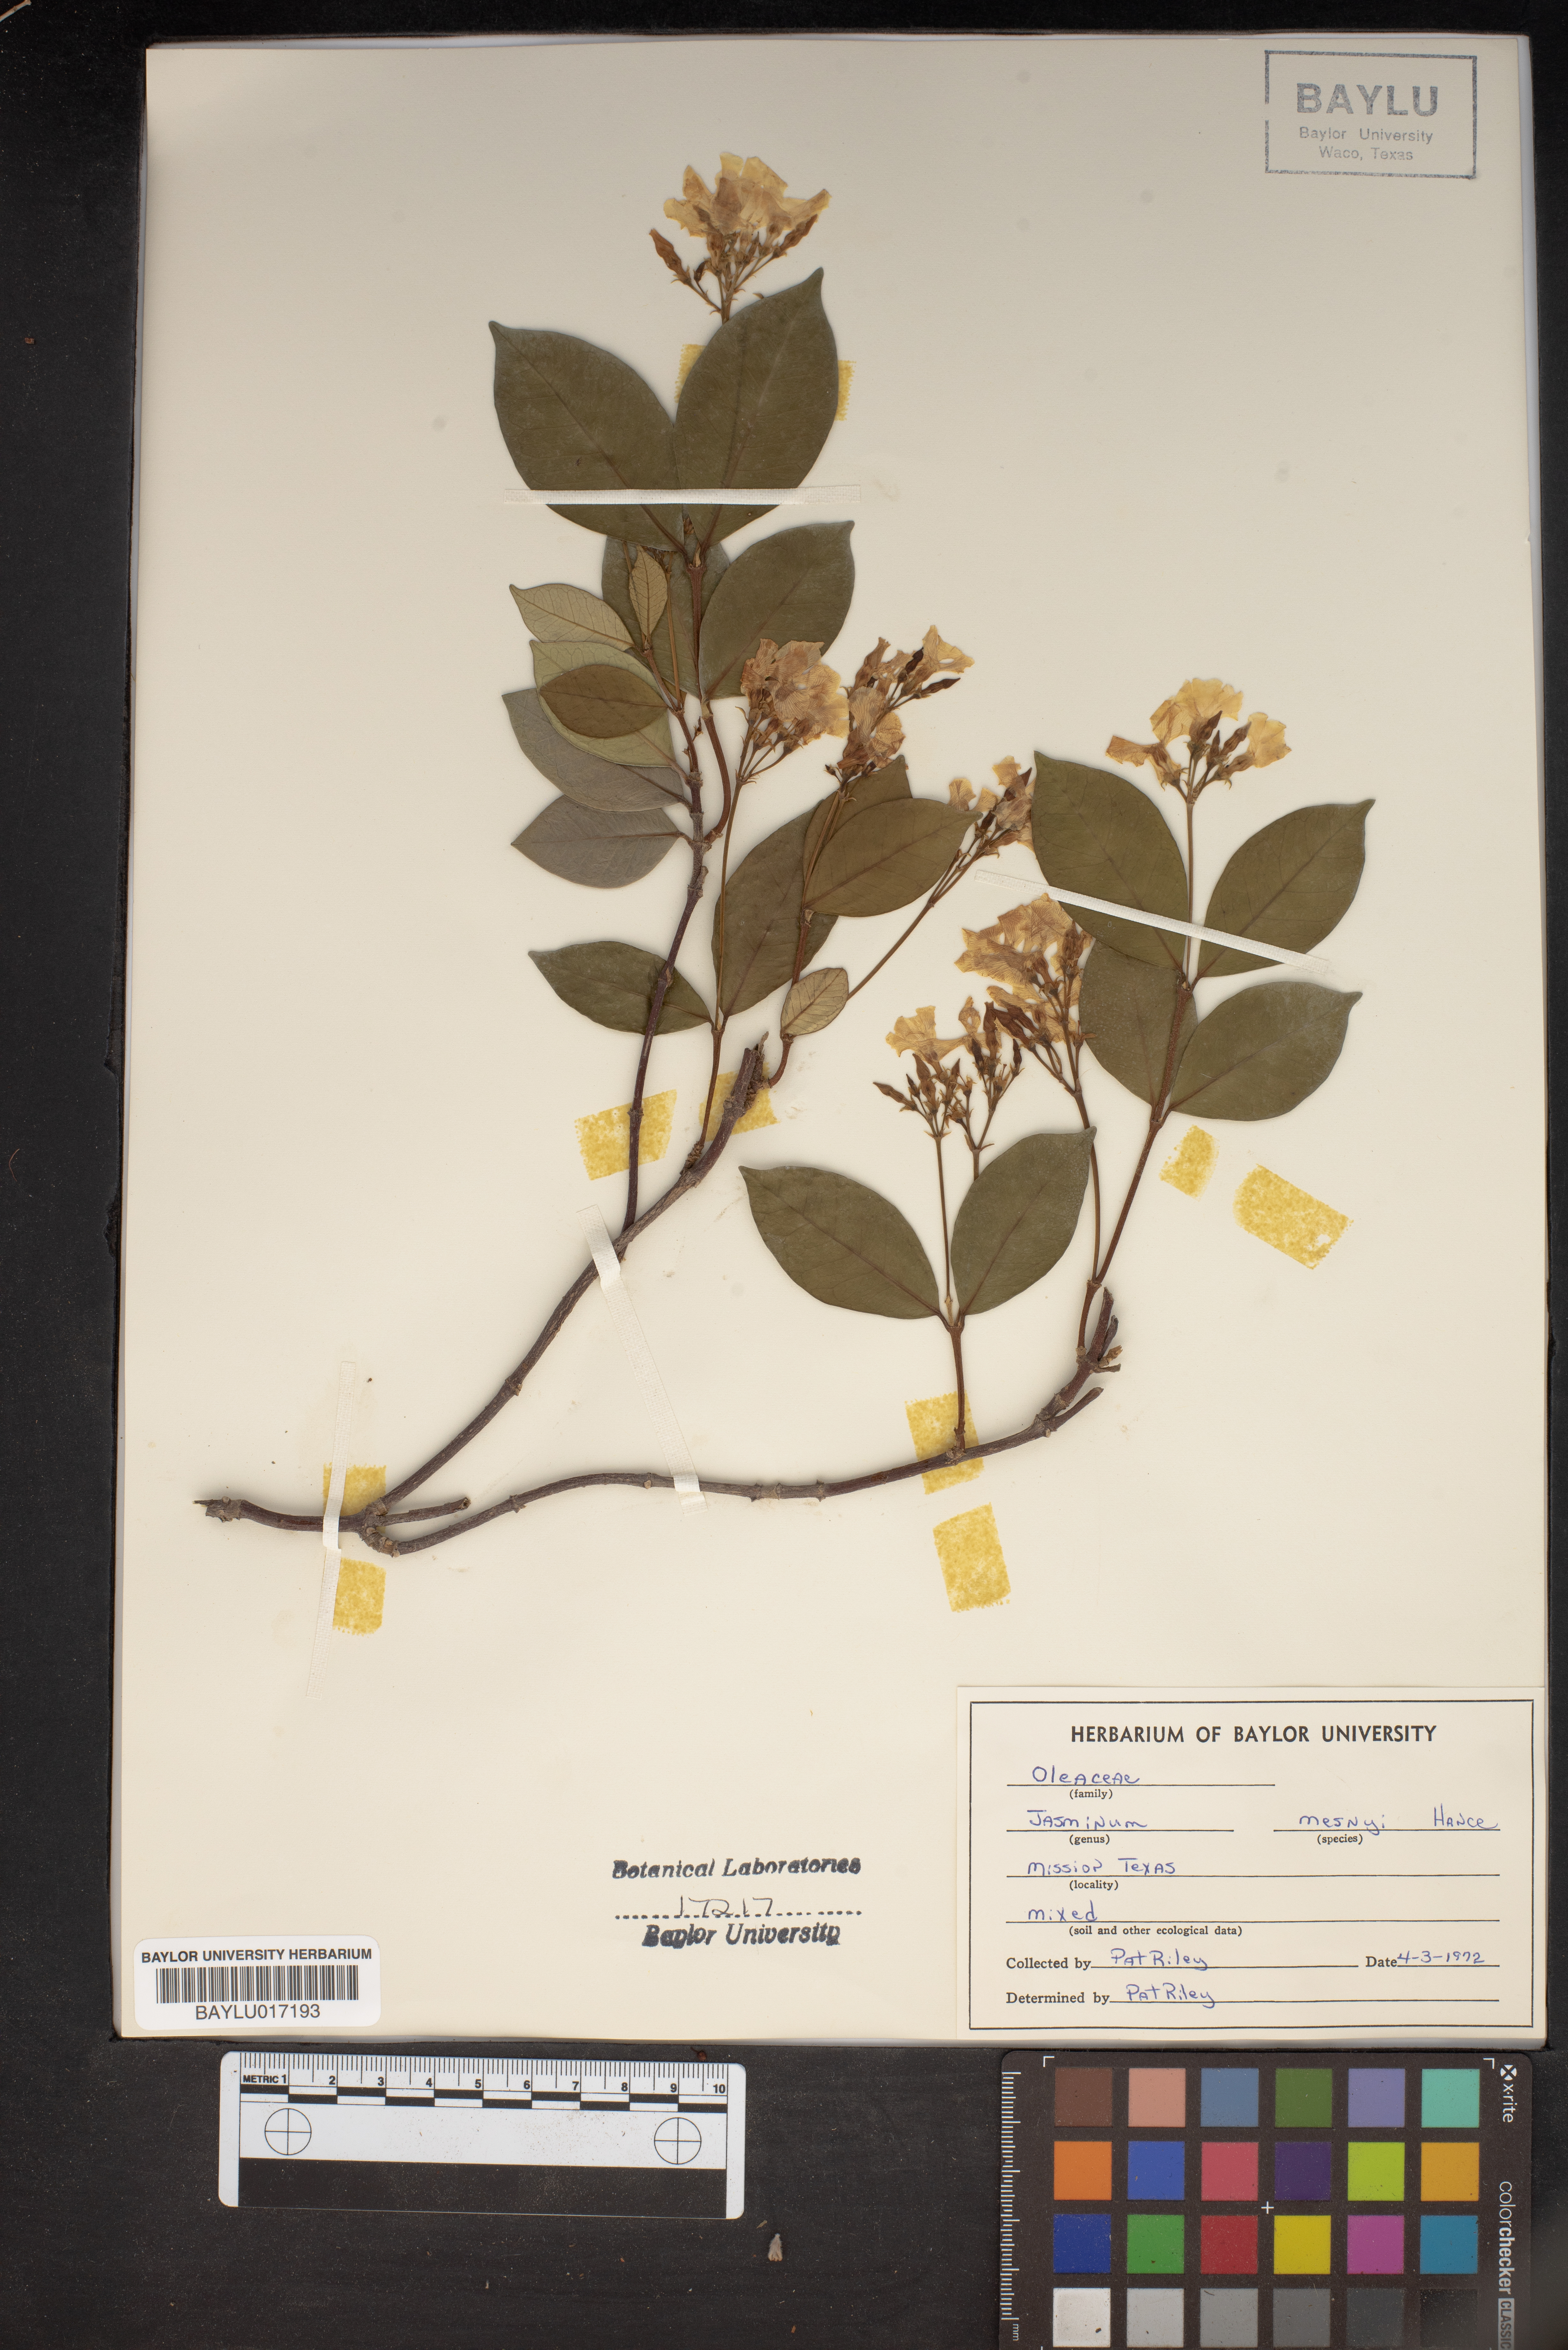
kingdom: Plantae
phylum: Tracheophyta
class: Magnoliopsida
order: Lamiales
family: Oleaceae
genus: Jasminum
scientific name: Jasminum mesnyi
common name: Japanese jasmine
